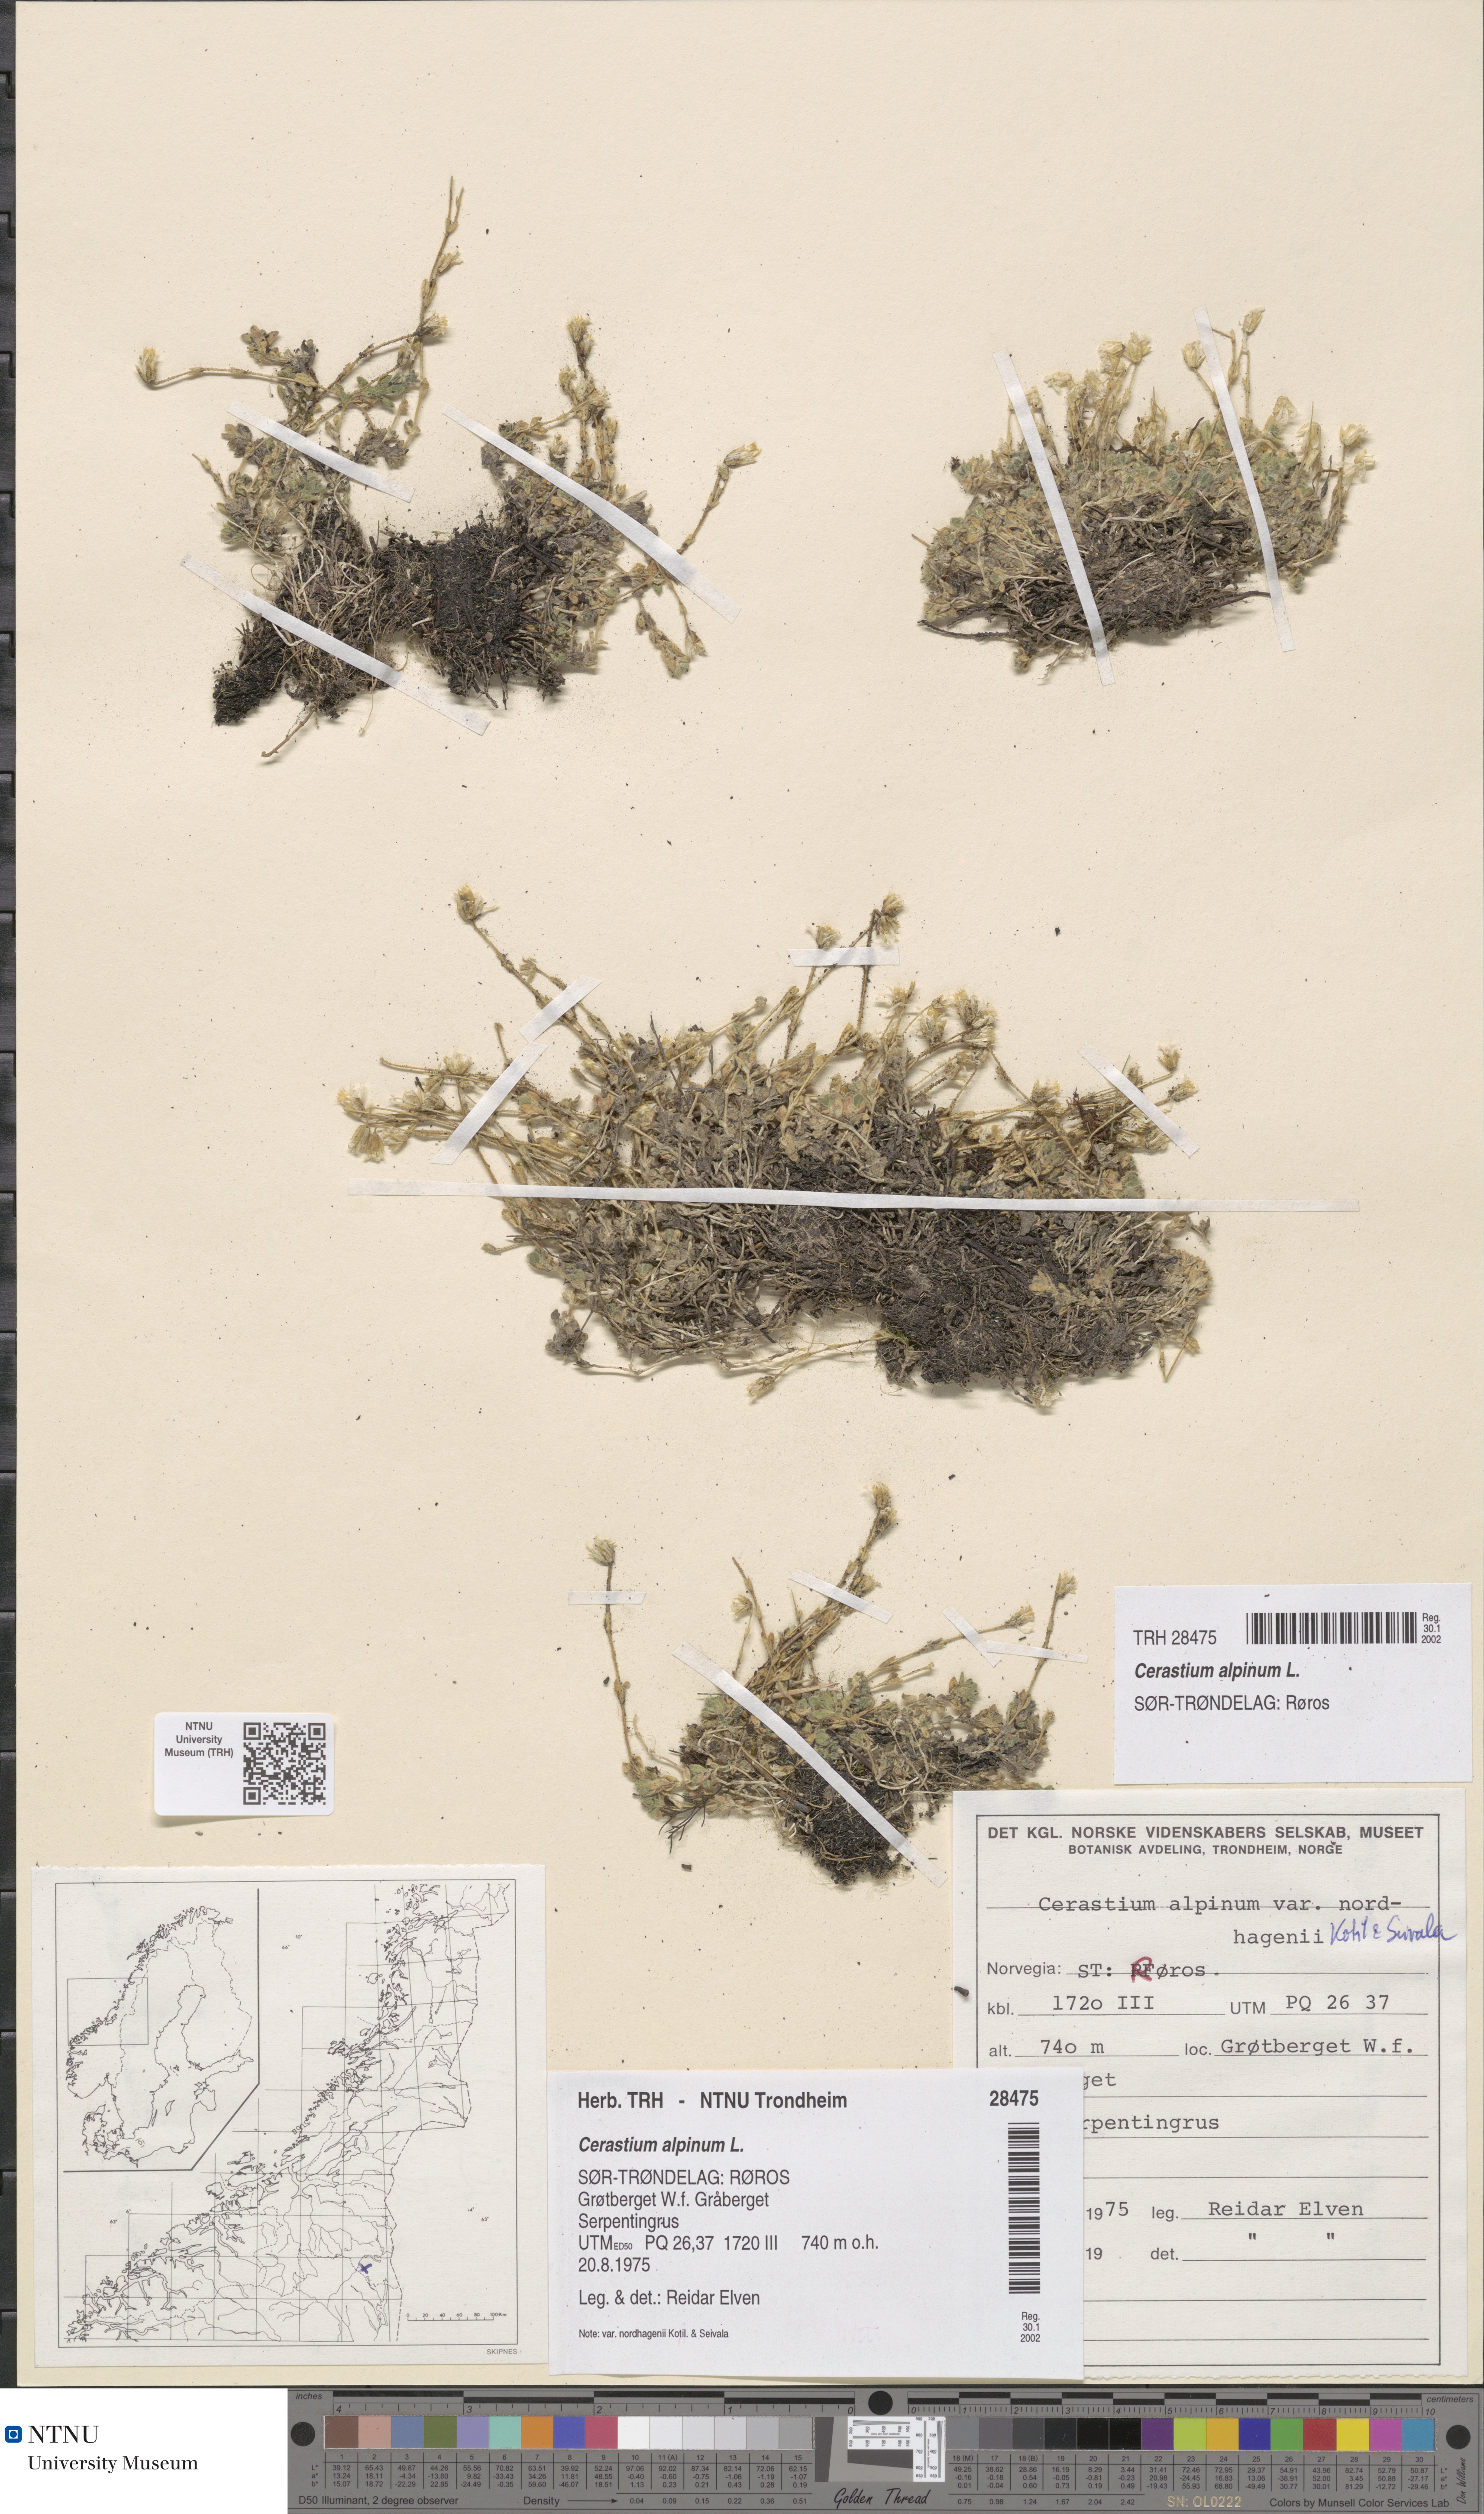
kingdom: Plantae
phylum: Tracheophyta
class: Magnoliopsida
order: Caryophyllales
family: Caryophyllaceae
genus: Cerastium
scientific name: Cerastium alpinum
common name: Alpine mouse-ear
